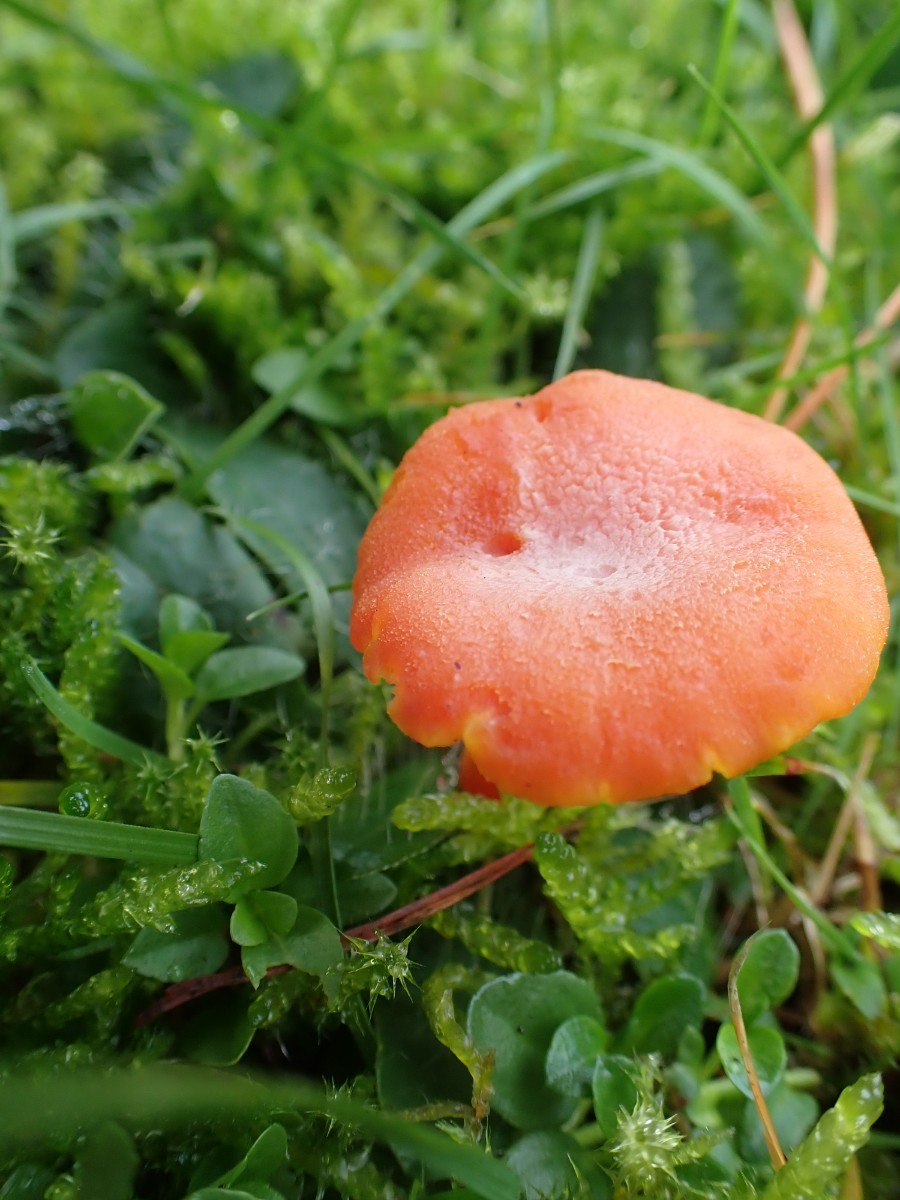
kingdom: Fungi
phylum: Basidiomycota
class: Agaricomycetes
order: Agaricales
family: Hygrophoraceae
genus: Hygrocybe
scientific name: Hygrocybe miniata
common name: mønje-vokshat
